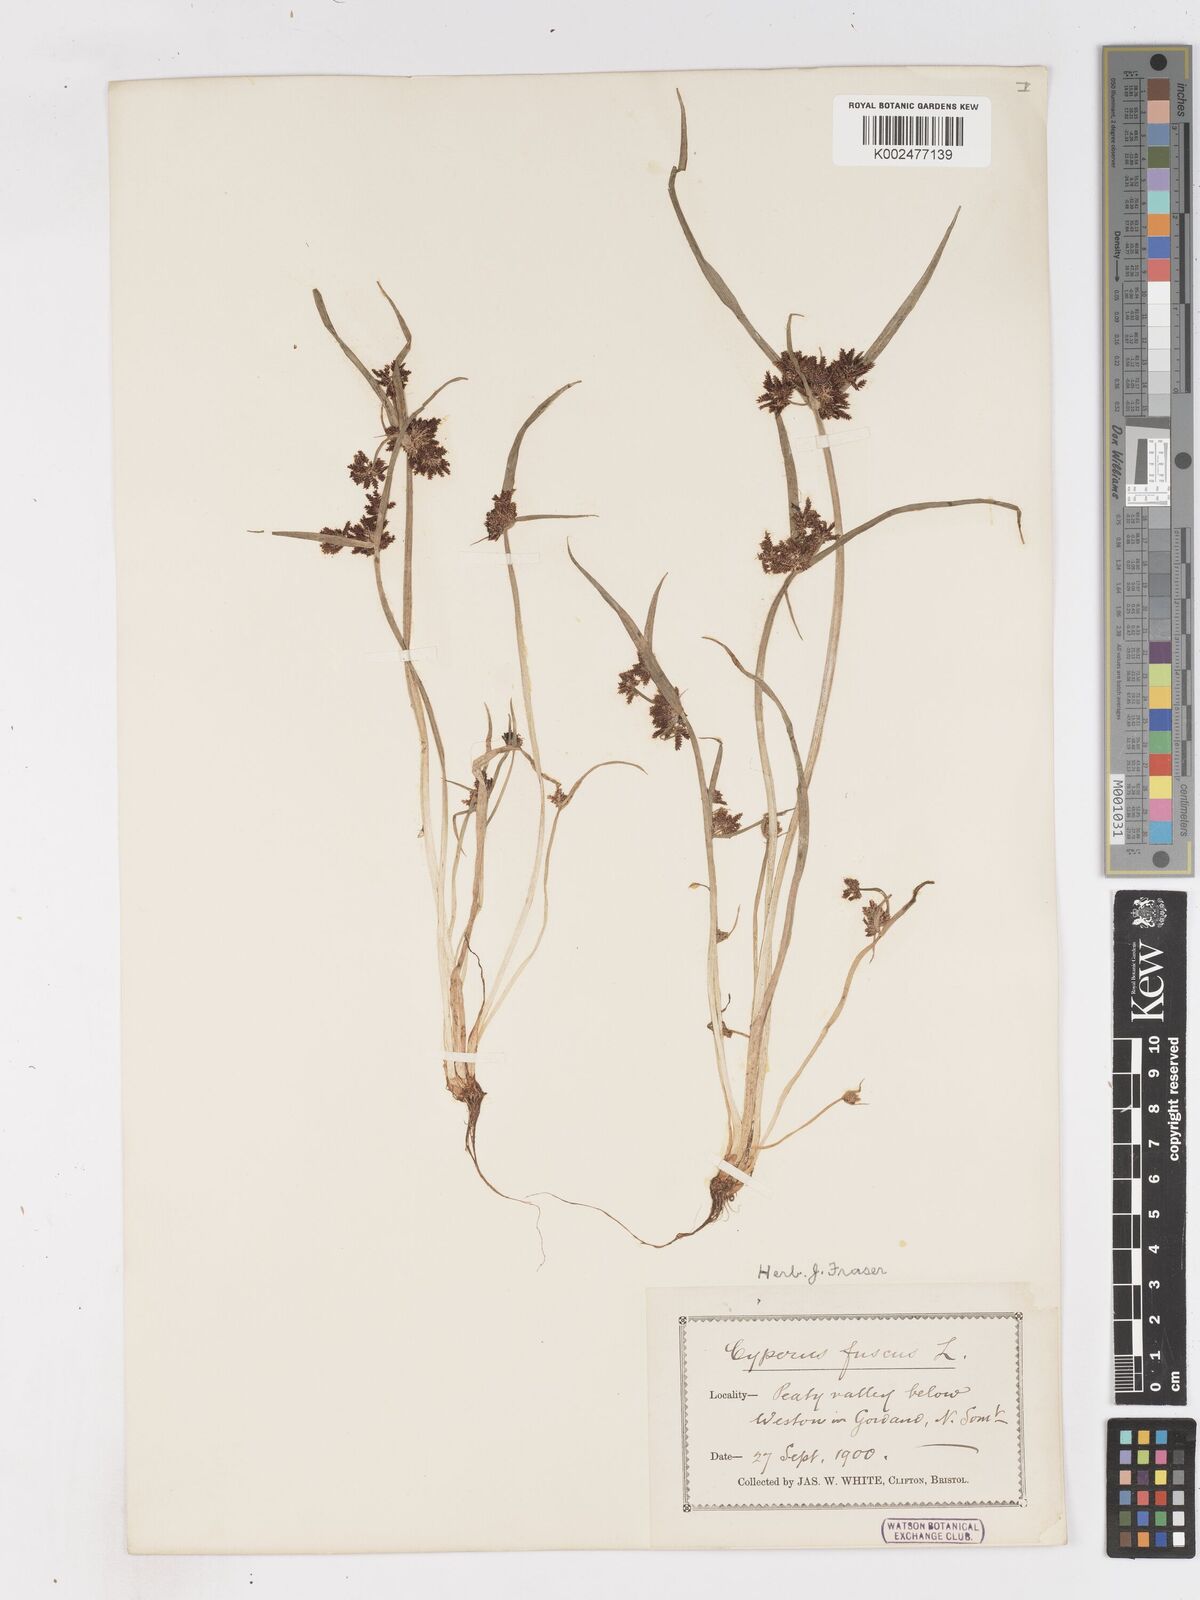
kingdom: Plantae
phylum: Tracheophyta
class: Liliopsida
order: Poales
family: Cyperaceae
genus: Cyperus
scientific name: Cyperus fuscus
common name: Brown galingale
